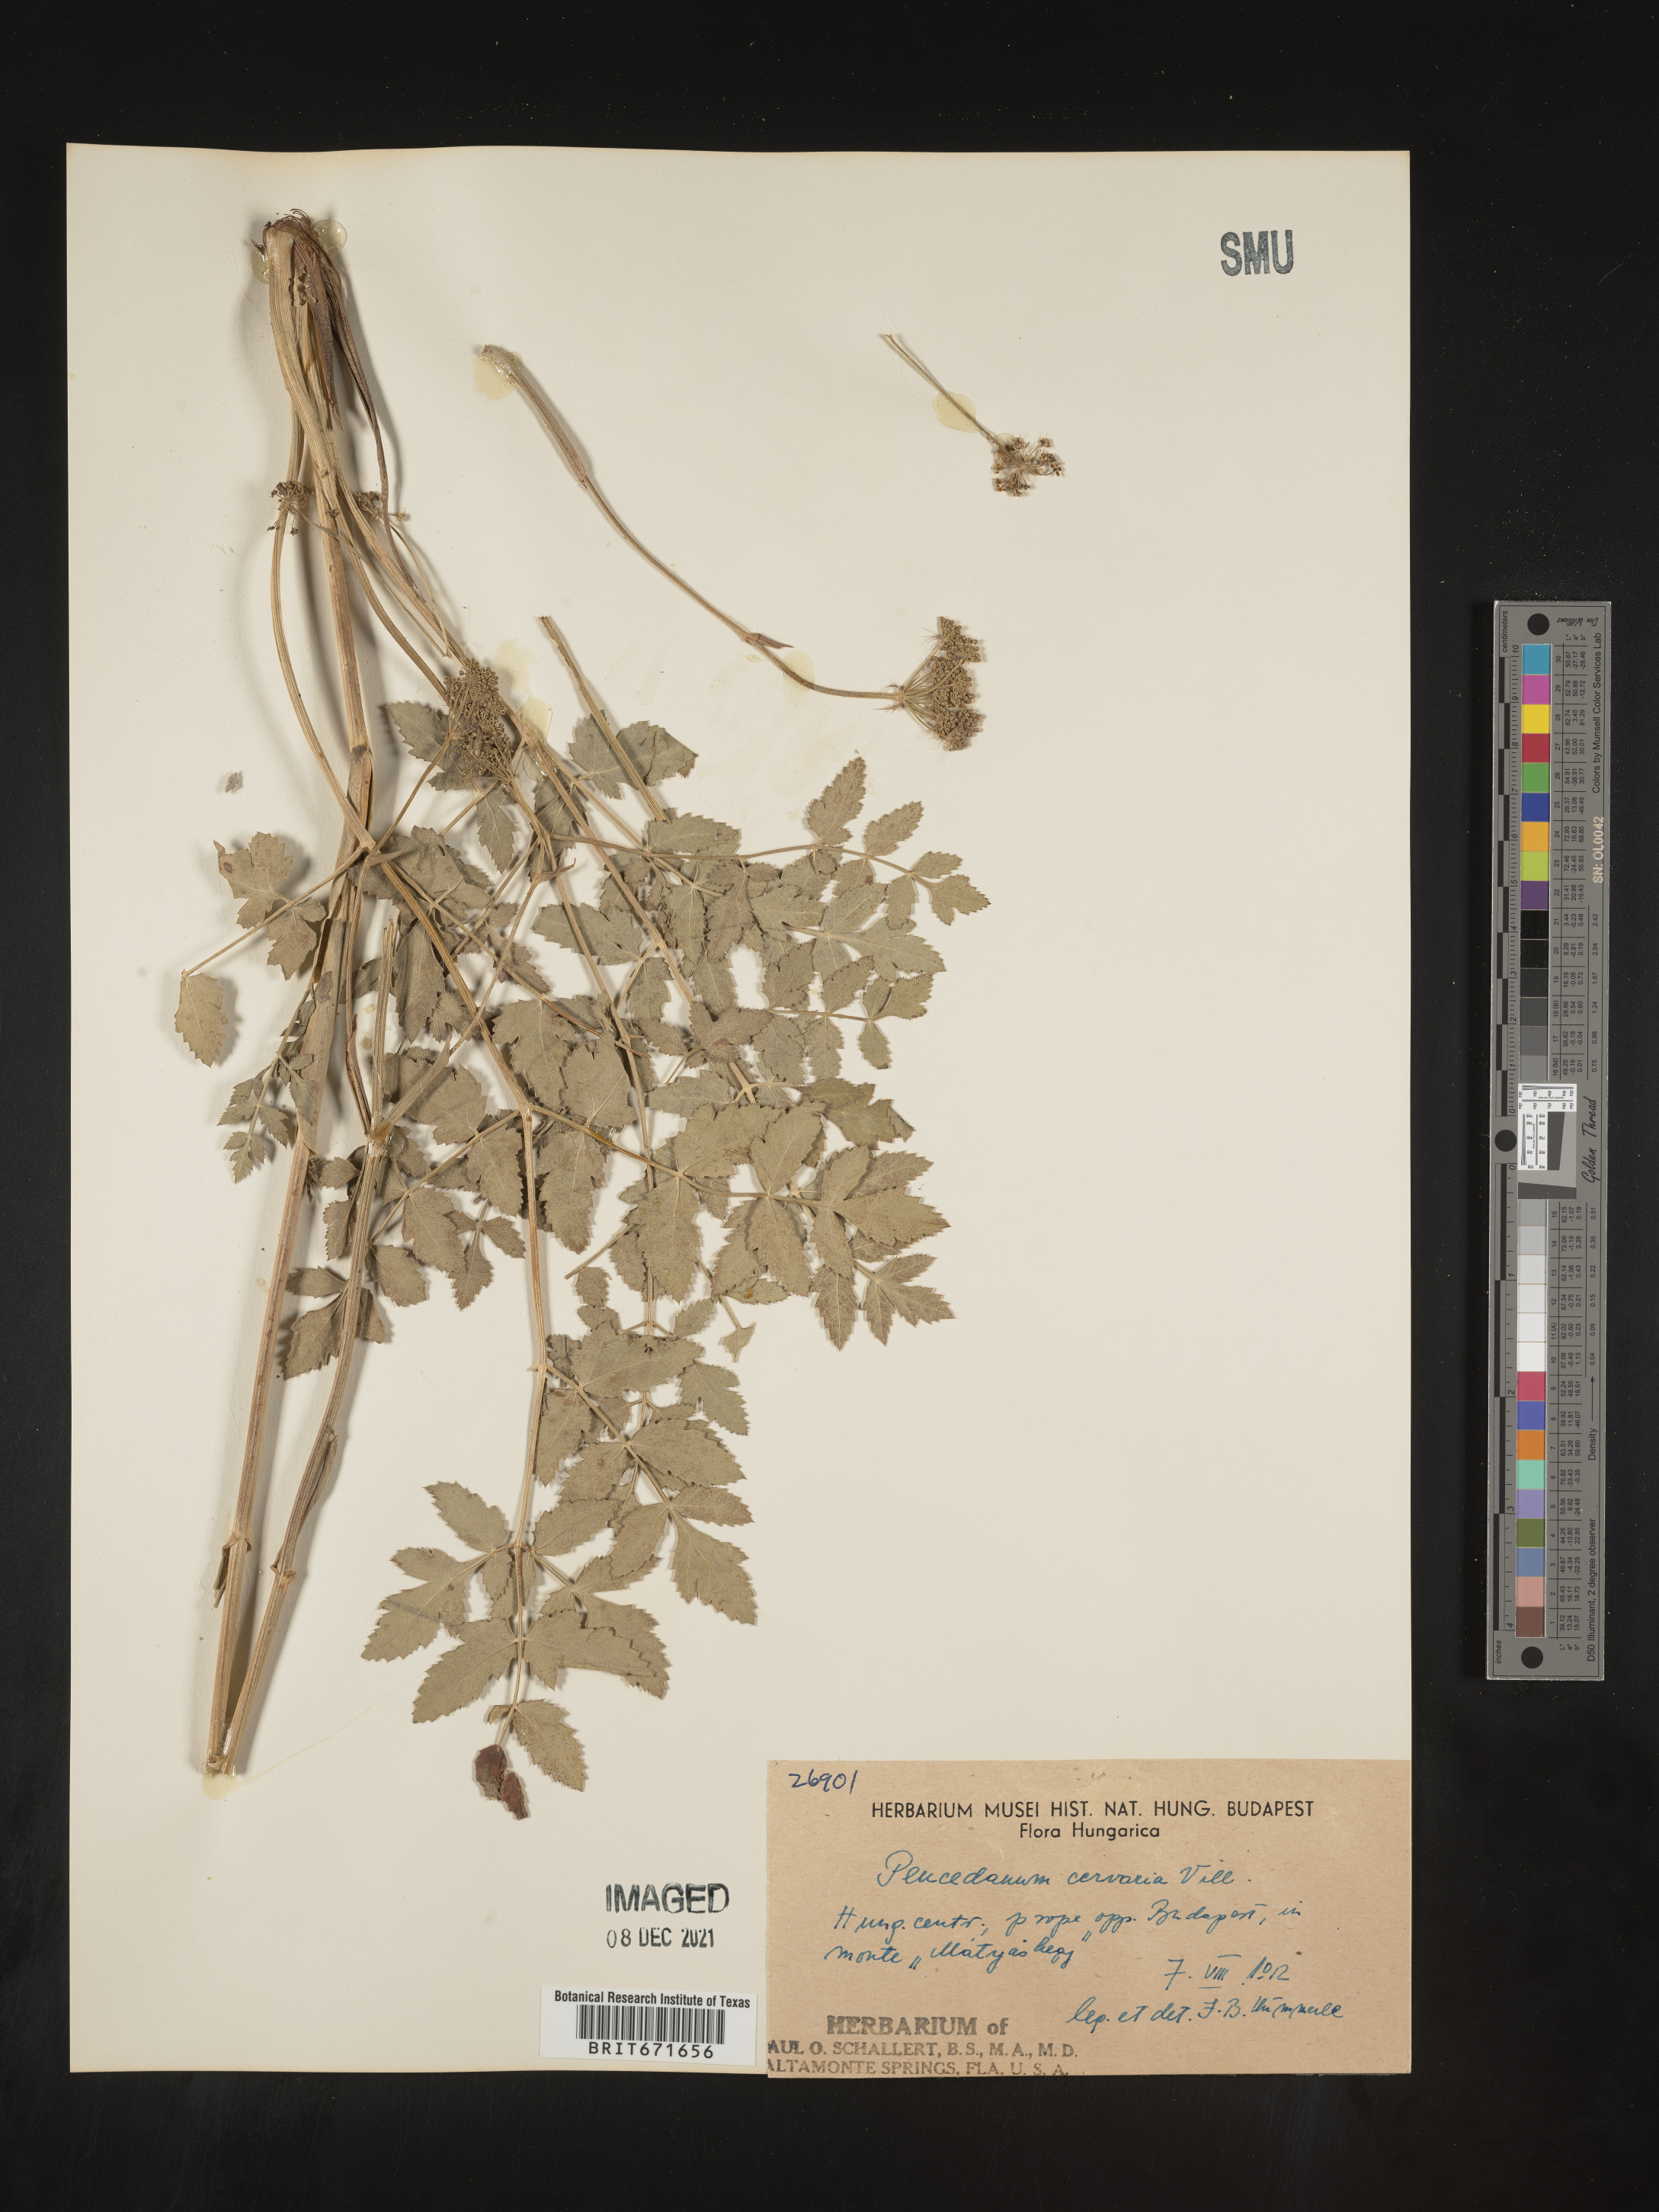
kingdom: Plantae
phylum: Tracheophyta
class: Magnoliopsida
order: Apiales
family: Apiaceae
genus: Peucedanum
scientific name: Peucedanum
